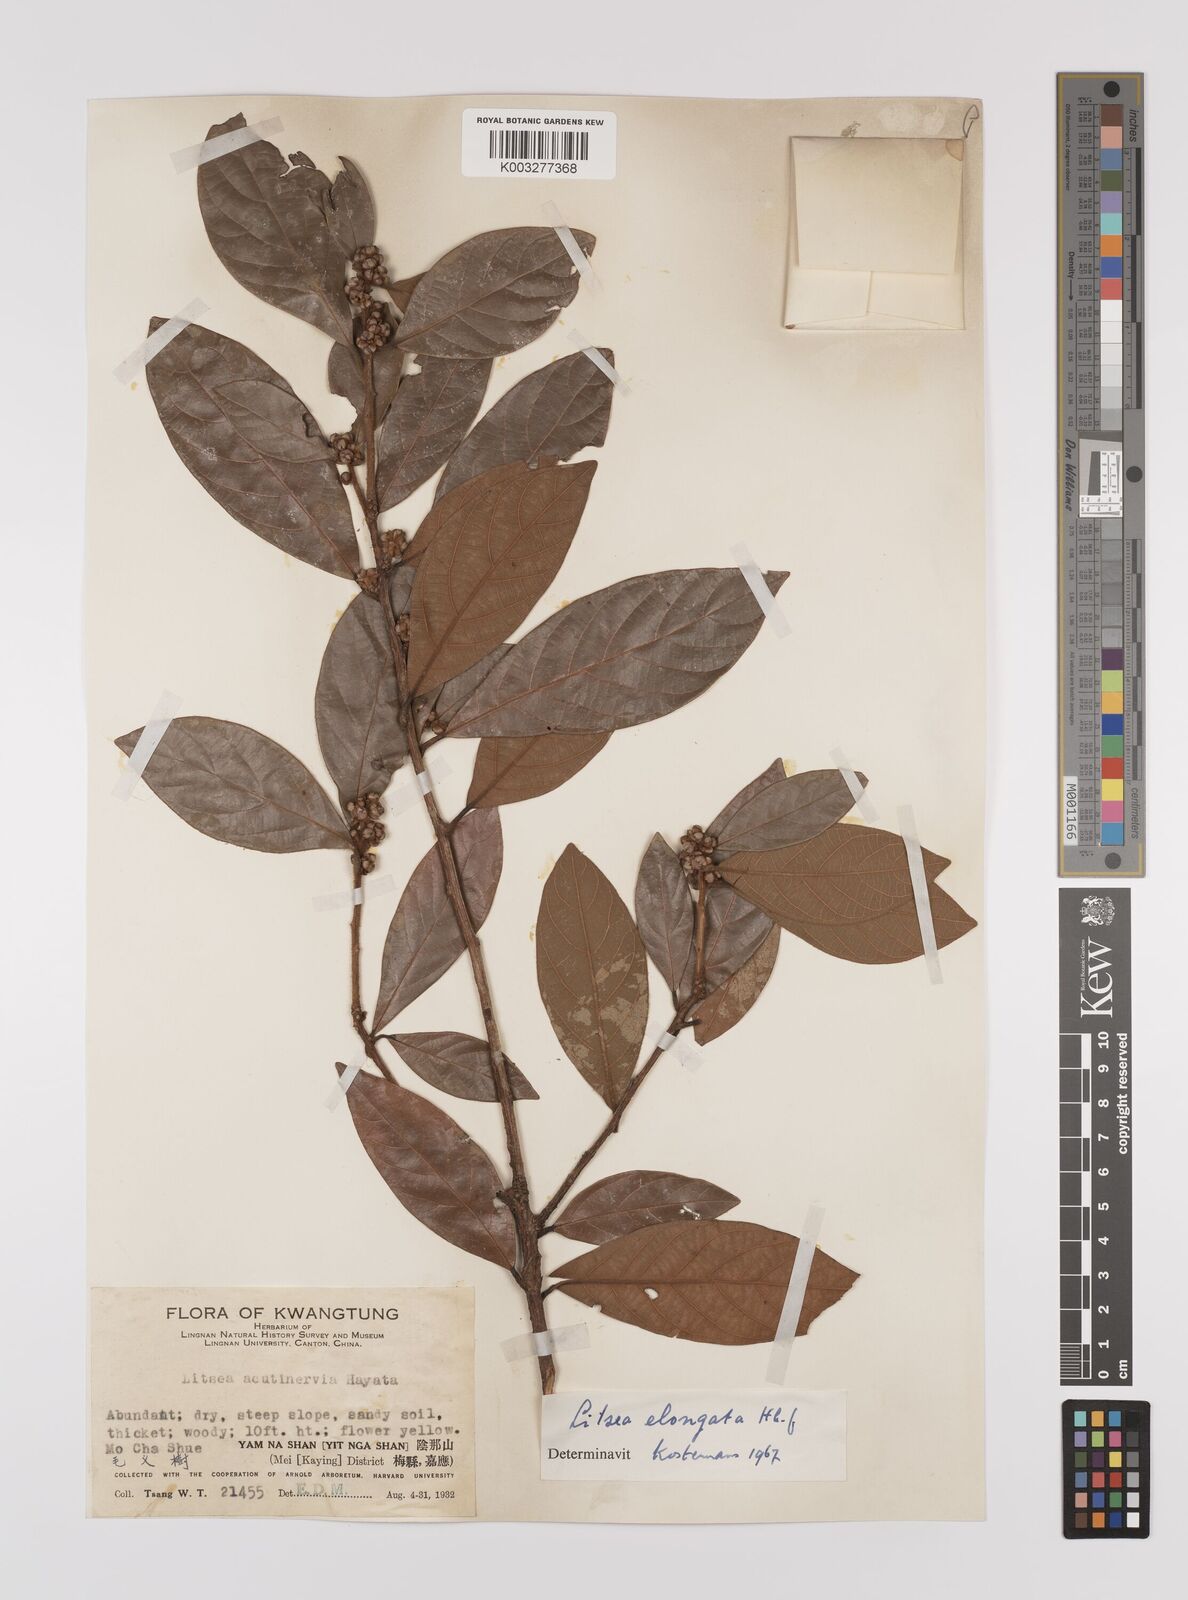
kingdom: Plantae
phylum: Tracheophyta
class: Magnoliopsida
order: Laurales
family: Lauraceae
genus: Litsea
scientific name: Litsea elongata
